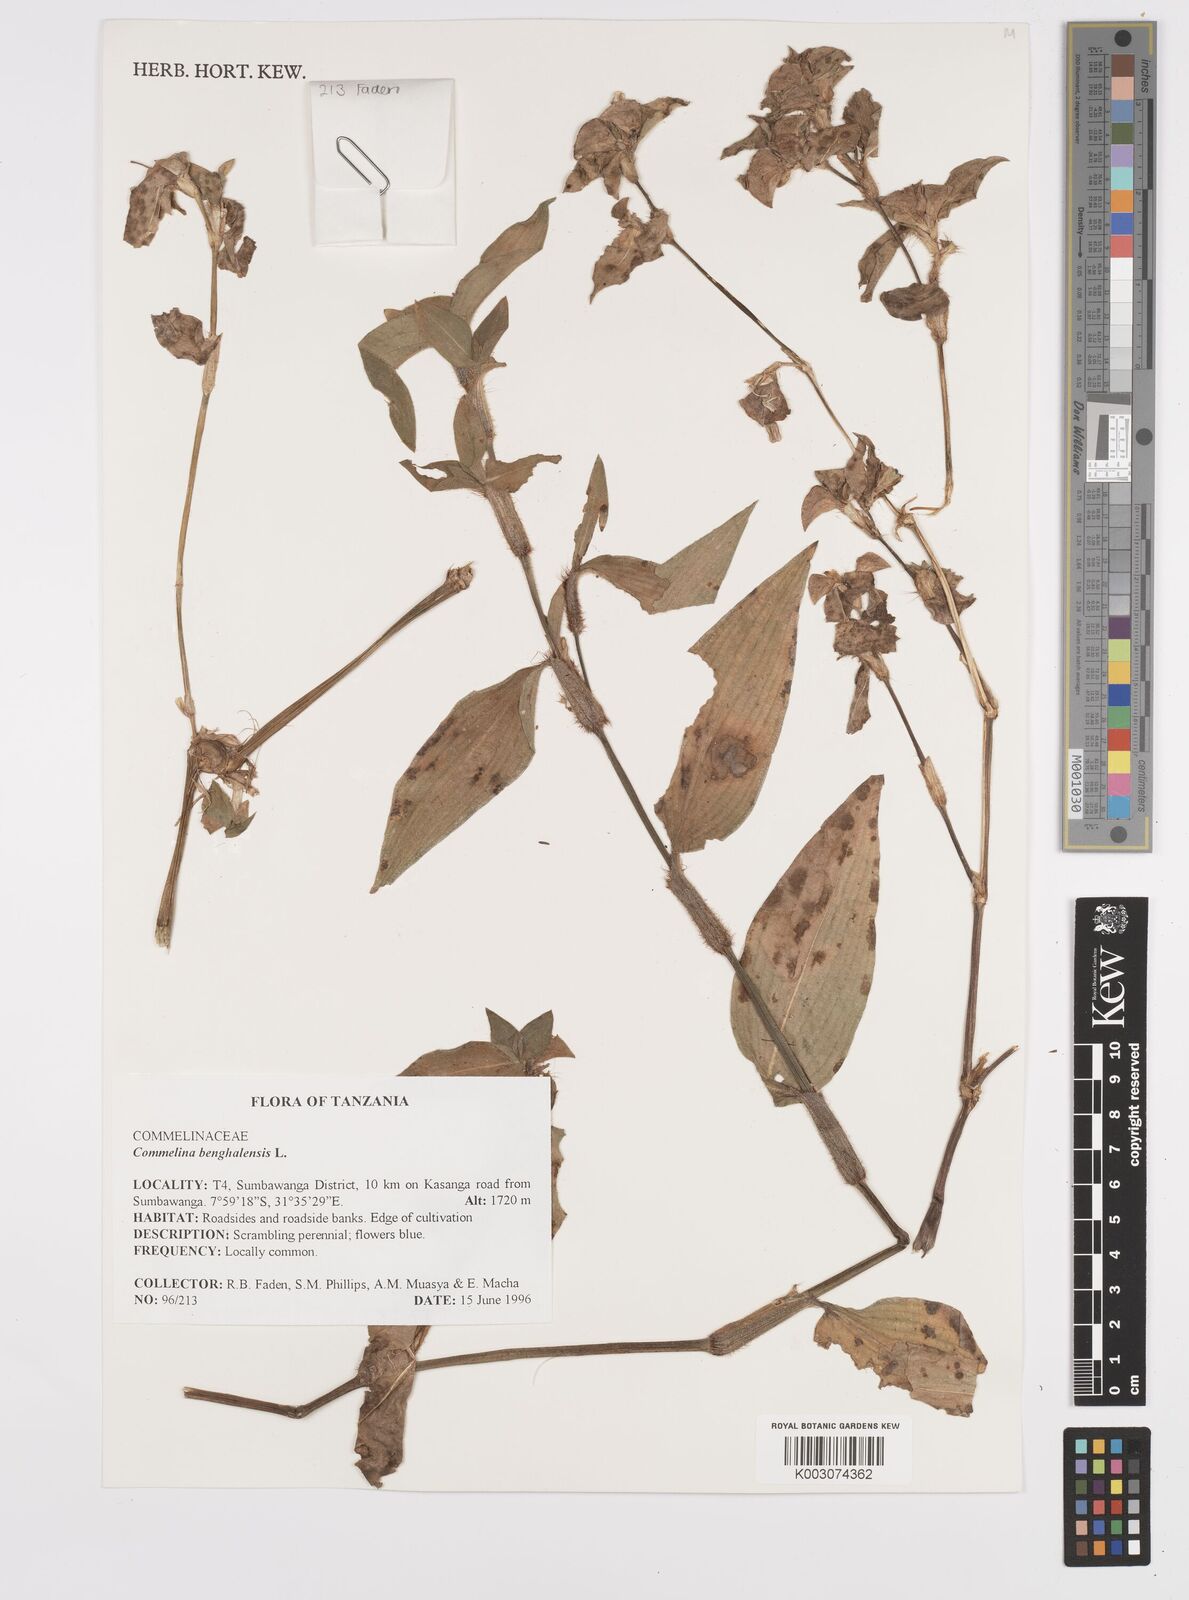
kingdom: Plantae
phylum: Tracheophyta
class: Liliopsida
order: Commelinales
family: Commelinaceae
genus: Commelina
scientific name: Commelina benghalensis
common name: Jio
